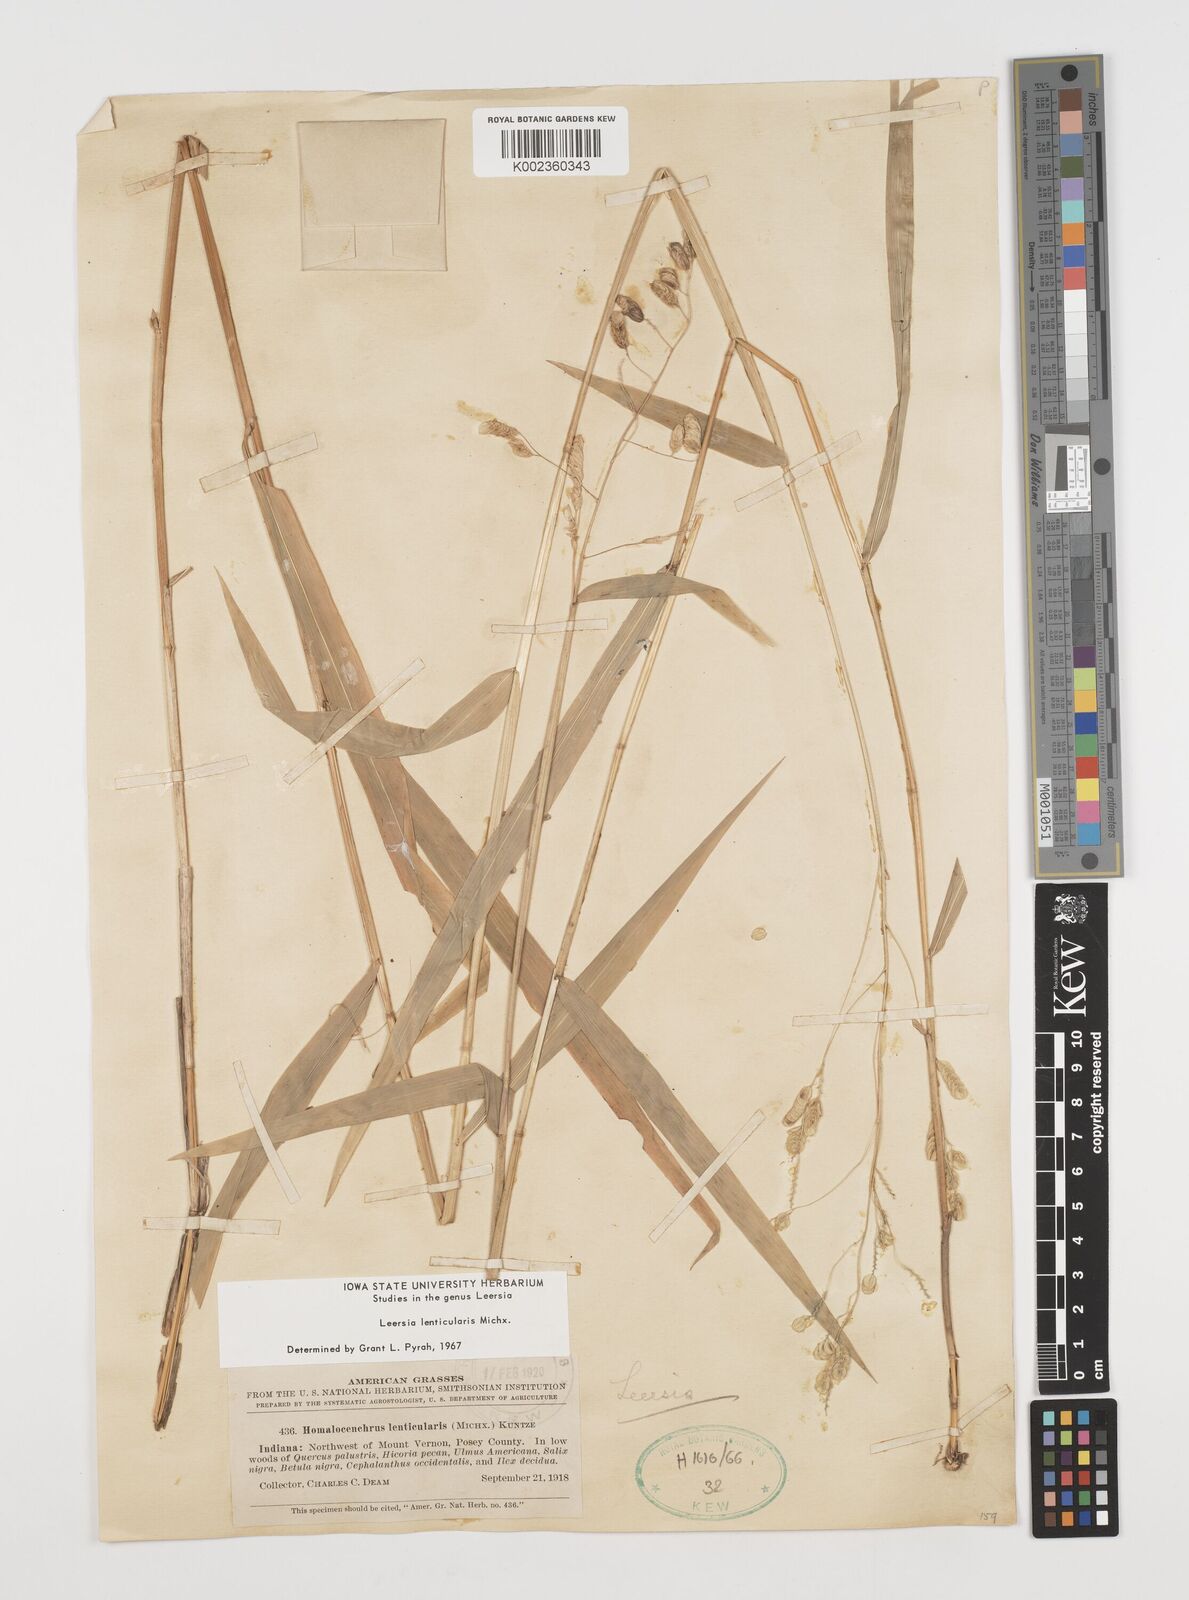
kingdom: Plantae
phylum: Tracheophyta
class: Liliopsida
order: Poales
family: Poaceae
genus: Leersia
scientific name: Leersia lenticularis
